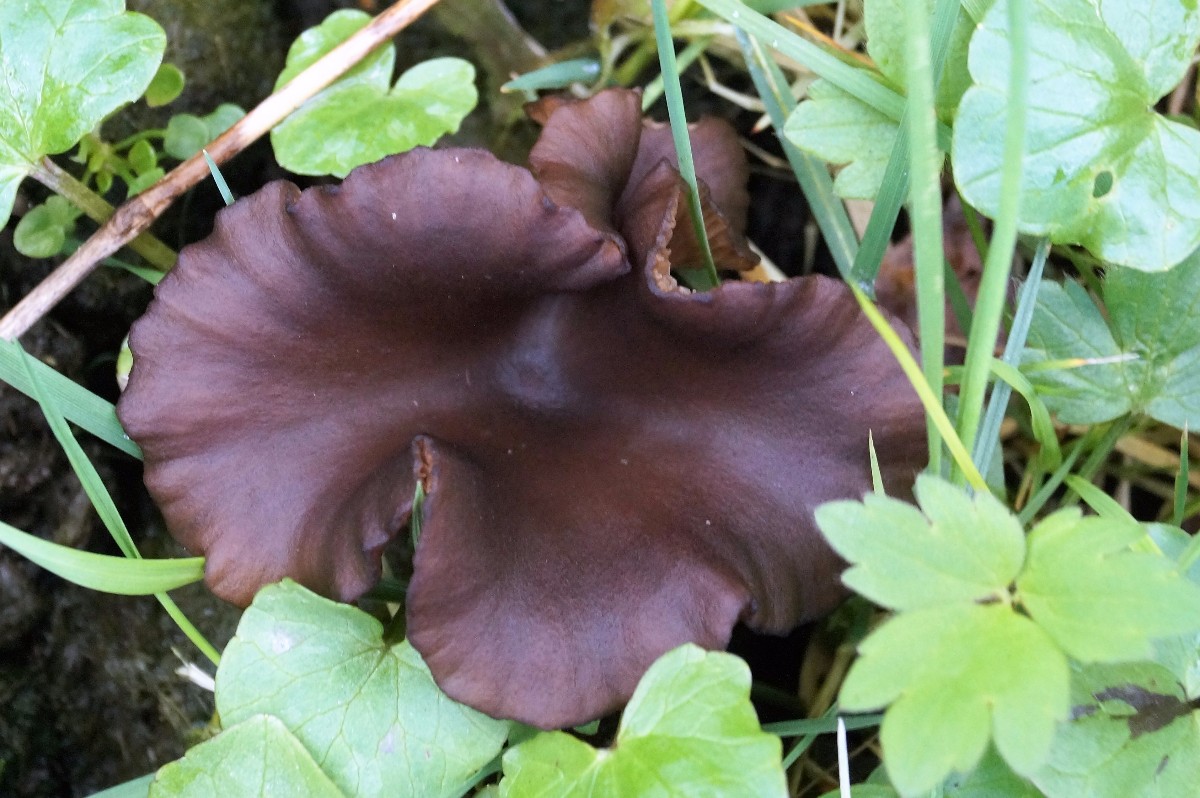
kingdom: Fungi
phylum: Basidiomycota
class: Agaricomycetes
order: Agaricales
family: Pseudoclitocybaceae
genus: Pseudoclitocybe
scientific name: Pseudoclitocybe cyathiformis
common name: almindelig bægertragthat
